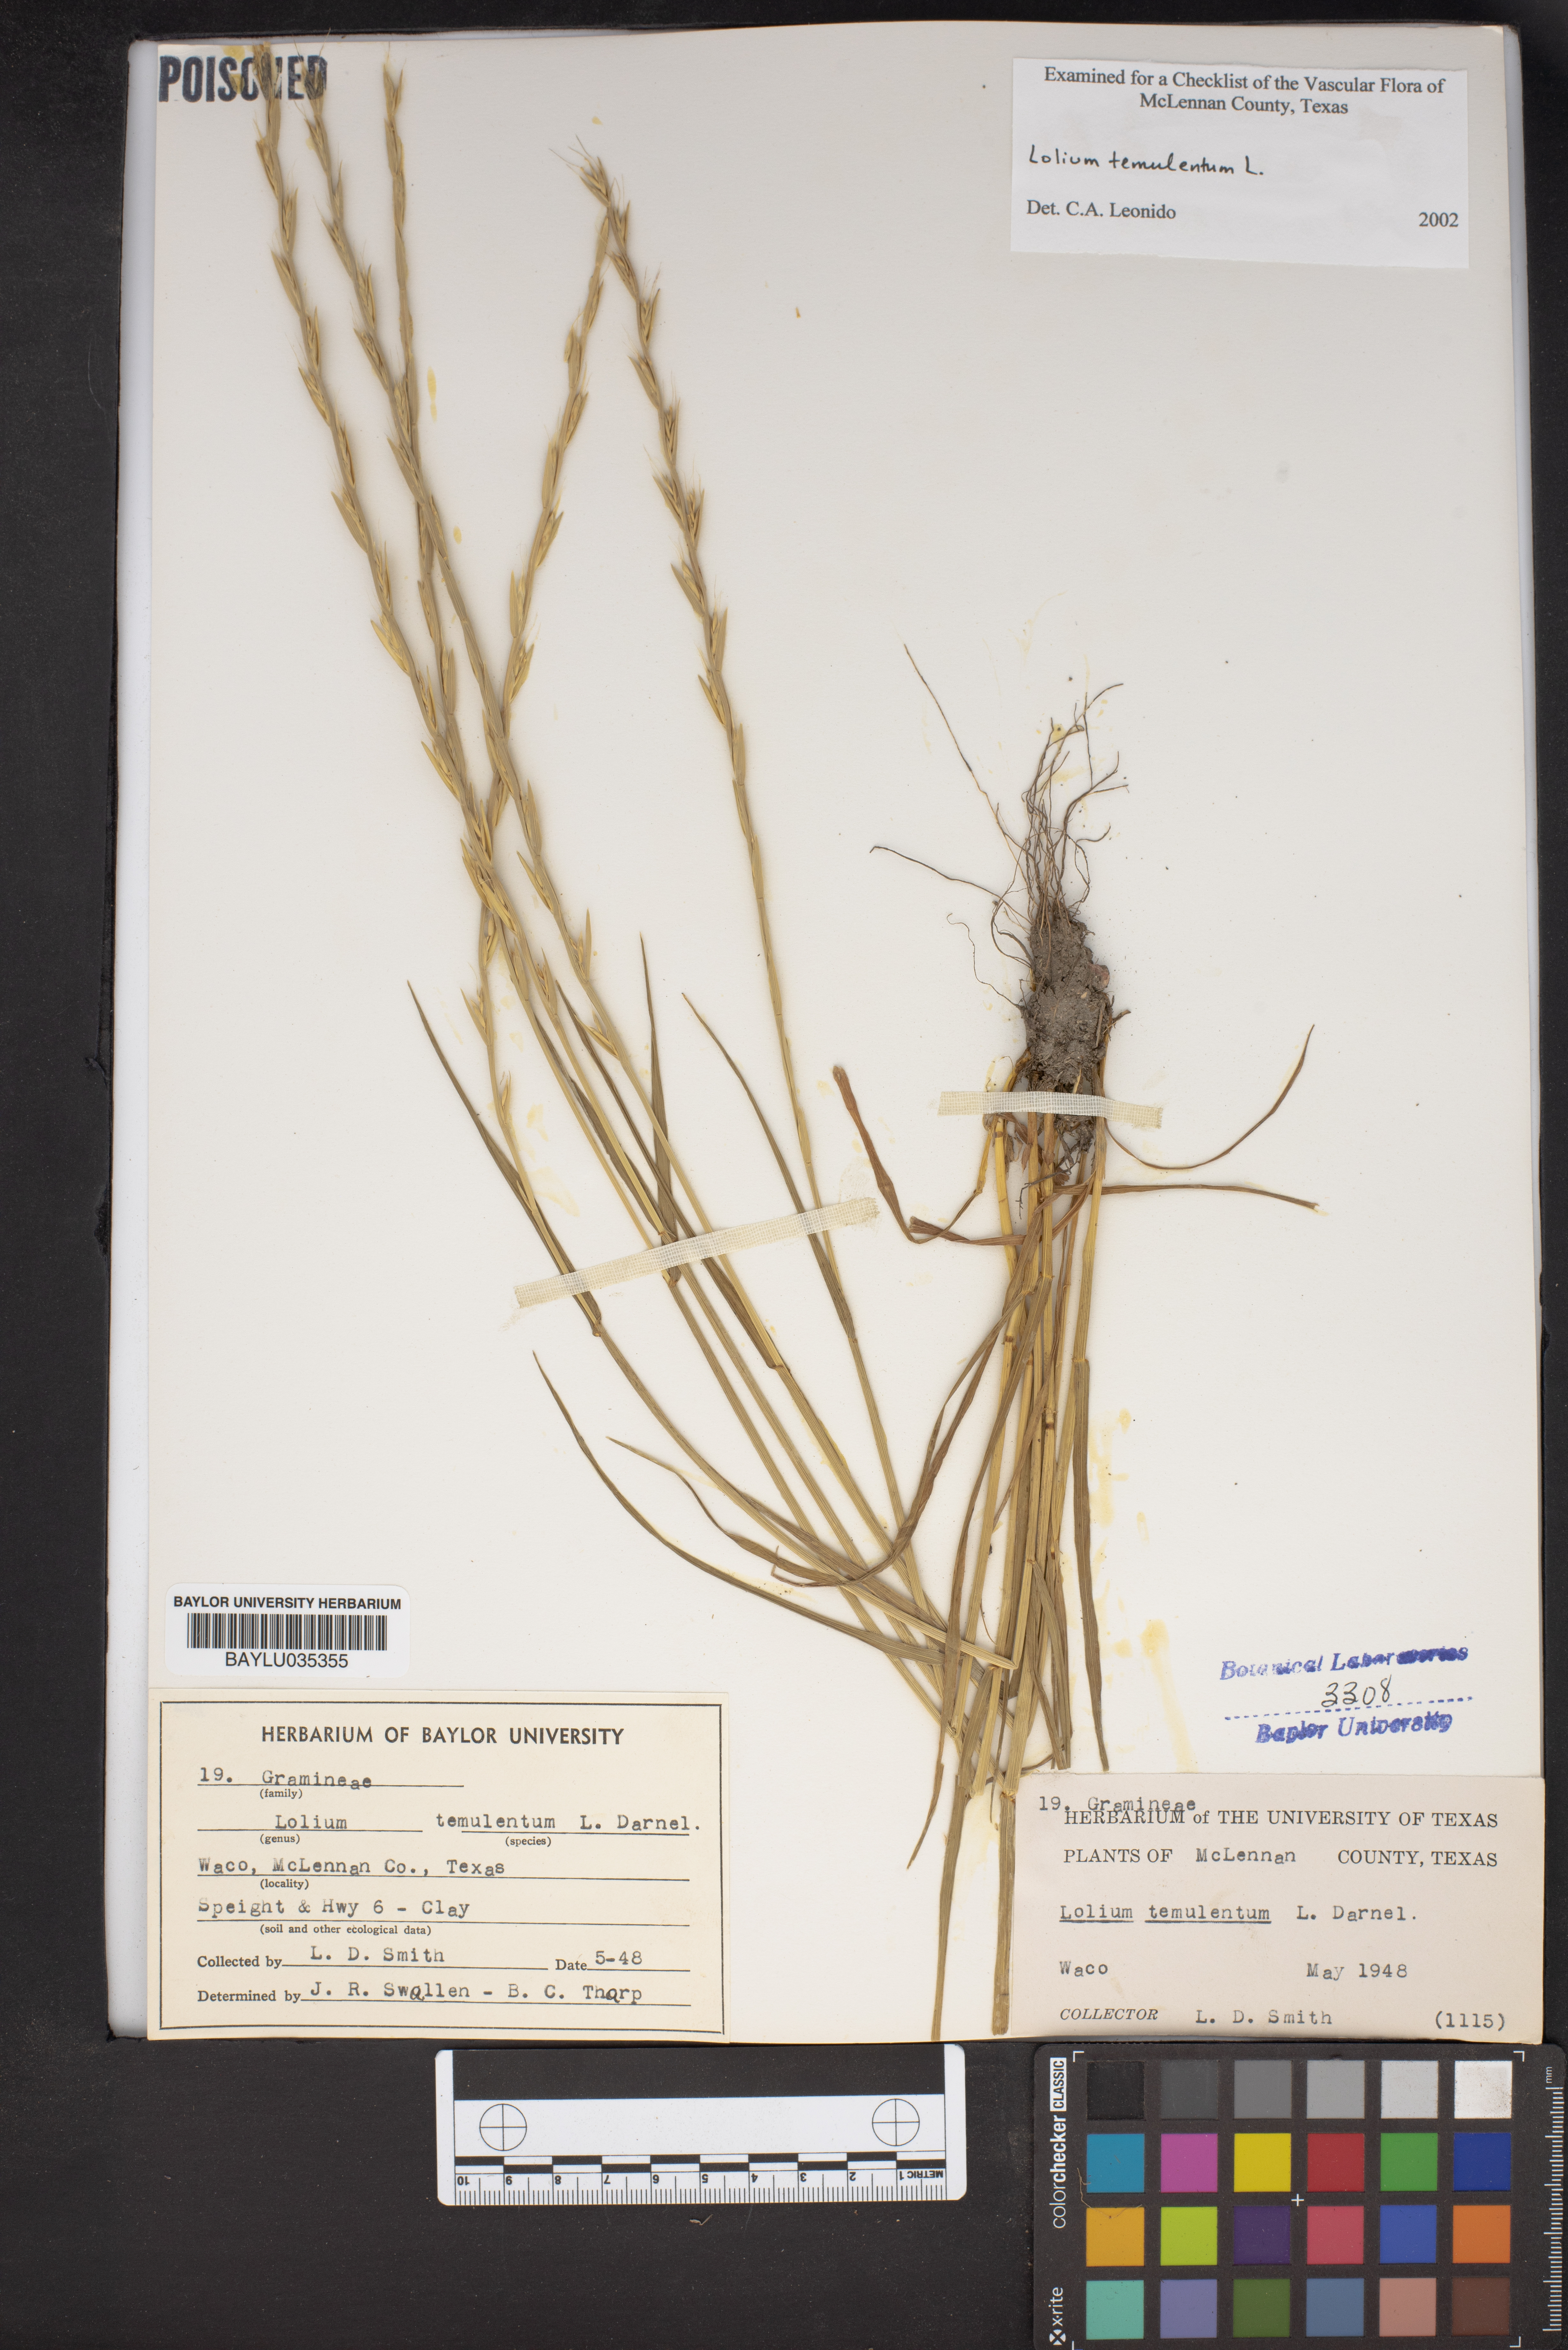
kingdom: Plantae
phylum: Tracheophyta
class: Liliopsida
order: Poales
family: Poaceae
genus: Lolium
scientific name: Lolium temulentum
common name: Darnel
